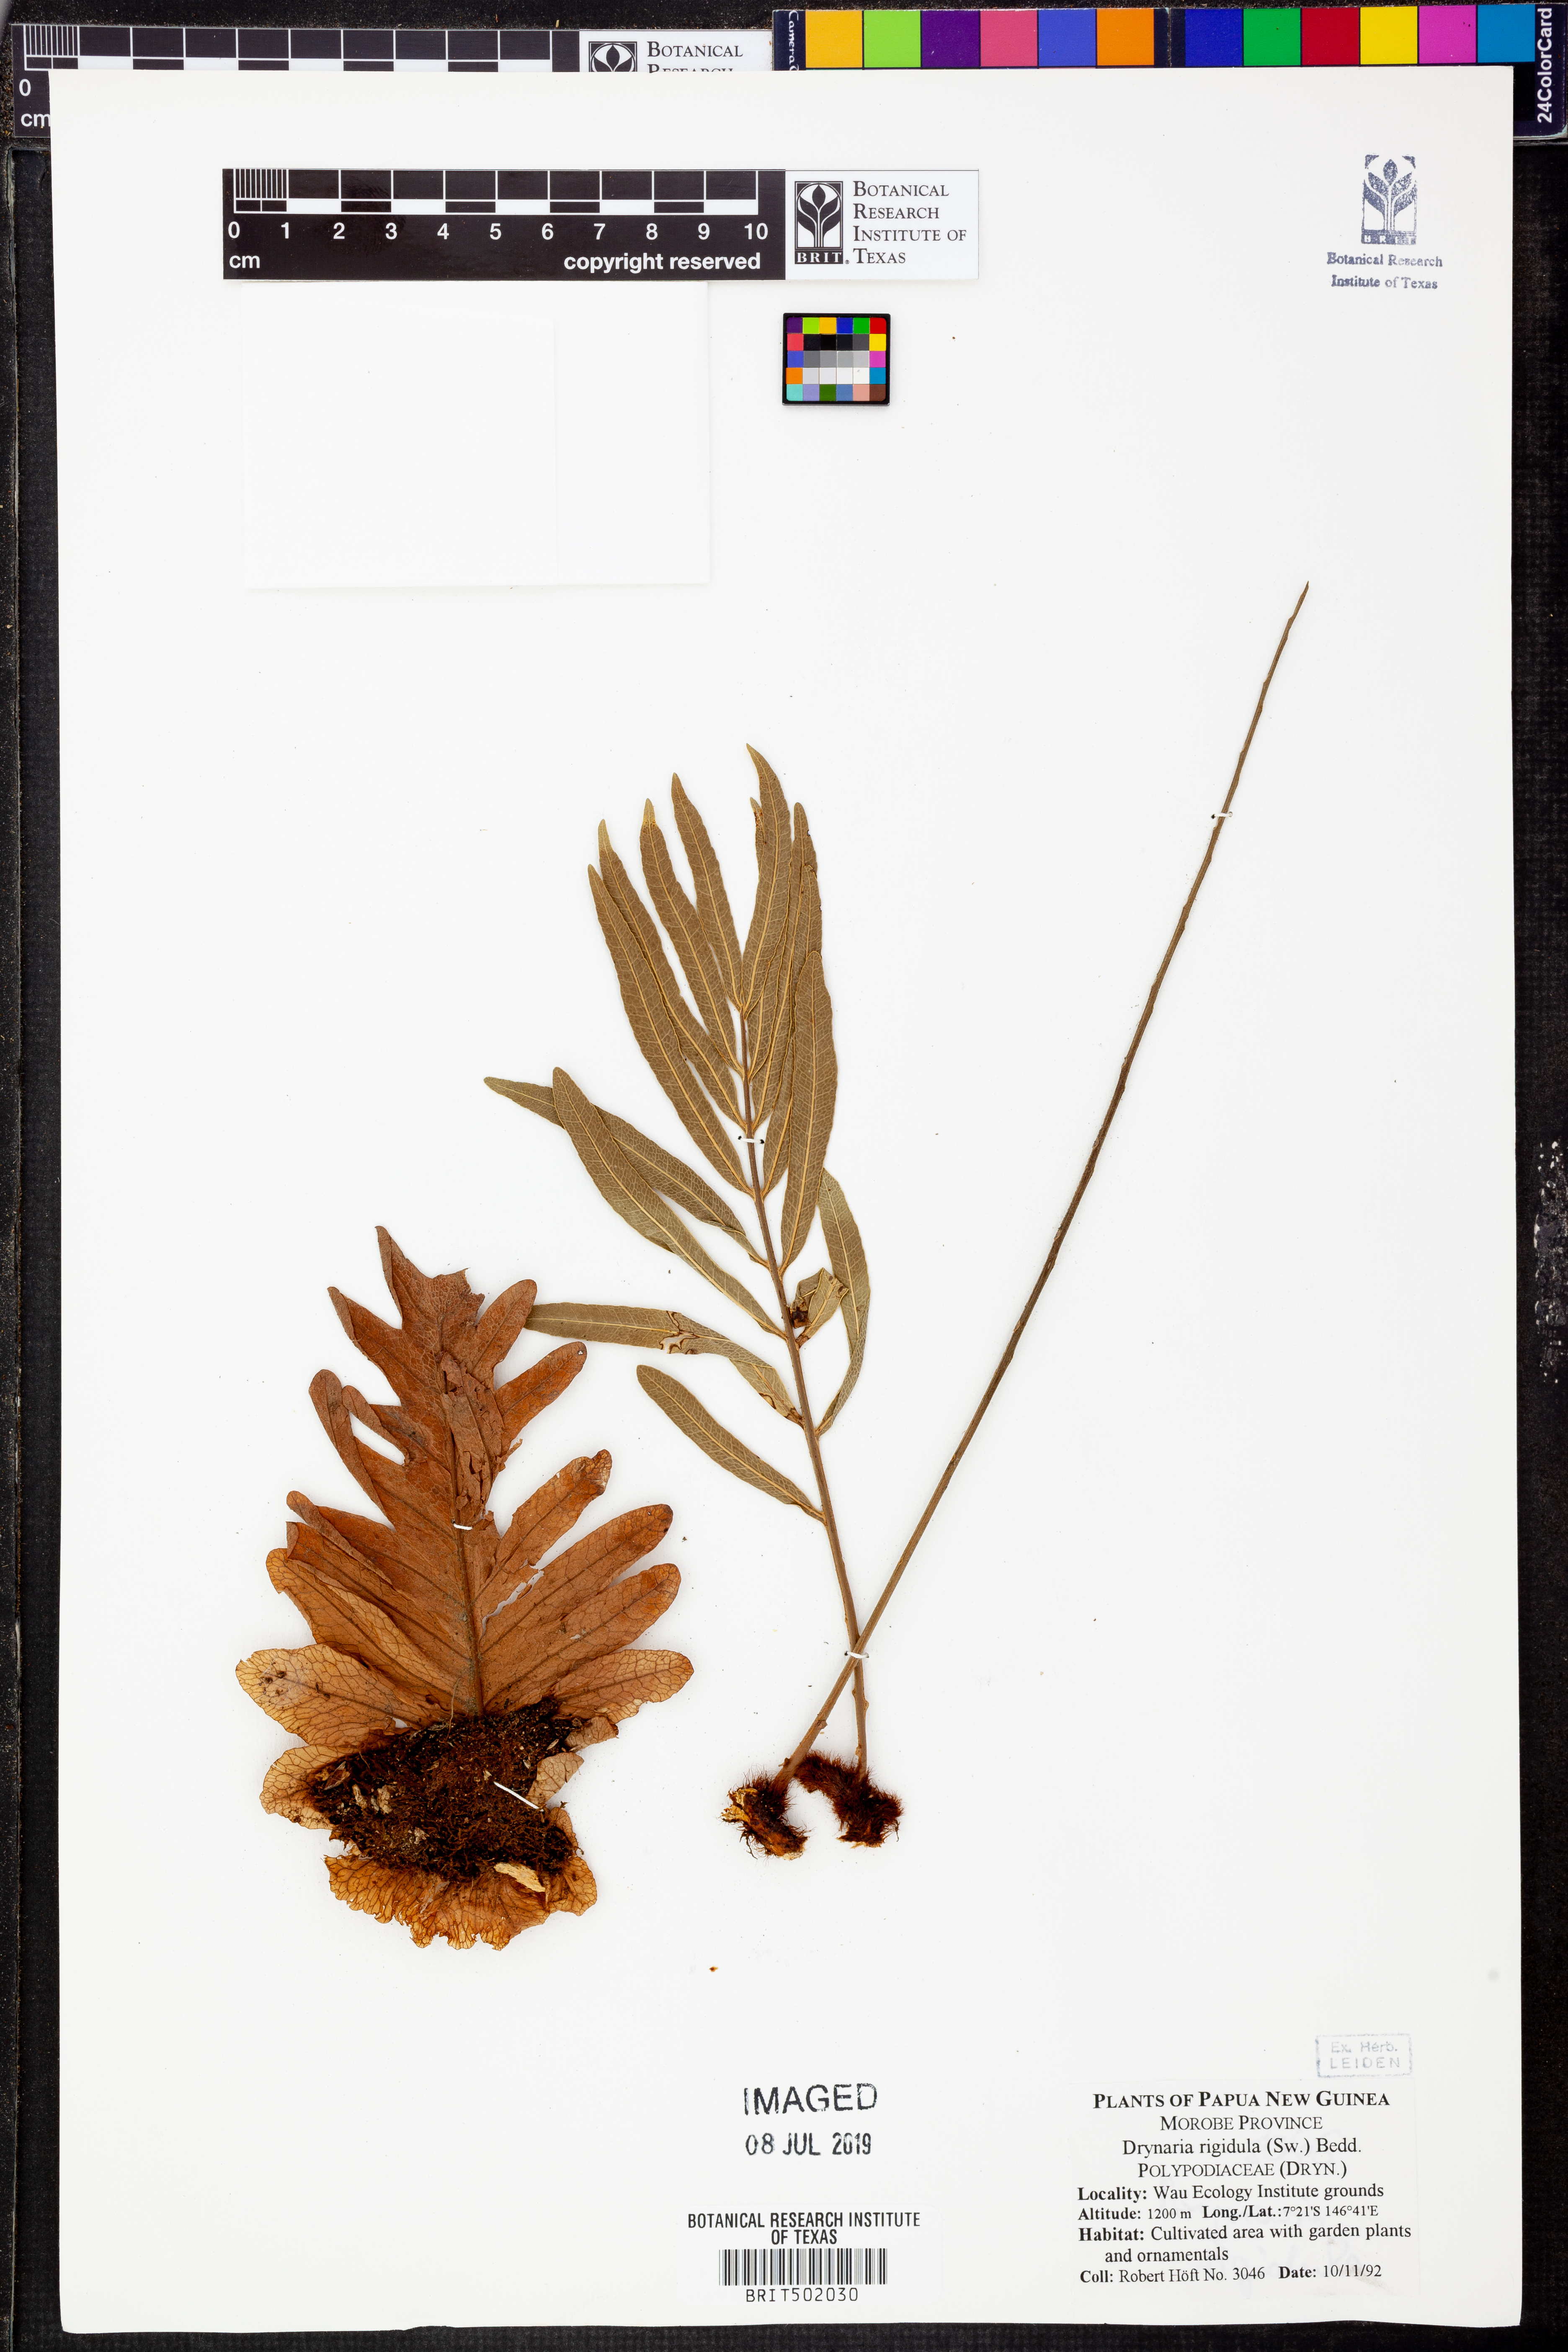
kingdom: Plantae
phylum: Tracheophyta
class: Polypodiopsida
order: Polypodiales
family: Polypodiaceae
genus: Drynaria
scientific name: Drynaria rigidula
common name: Basket fern
